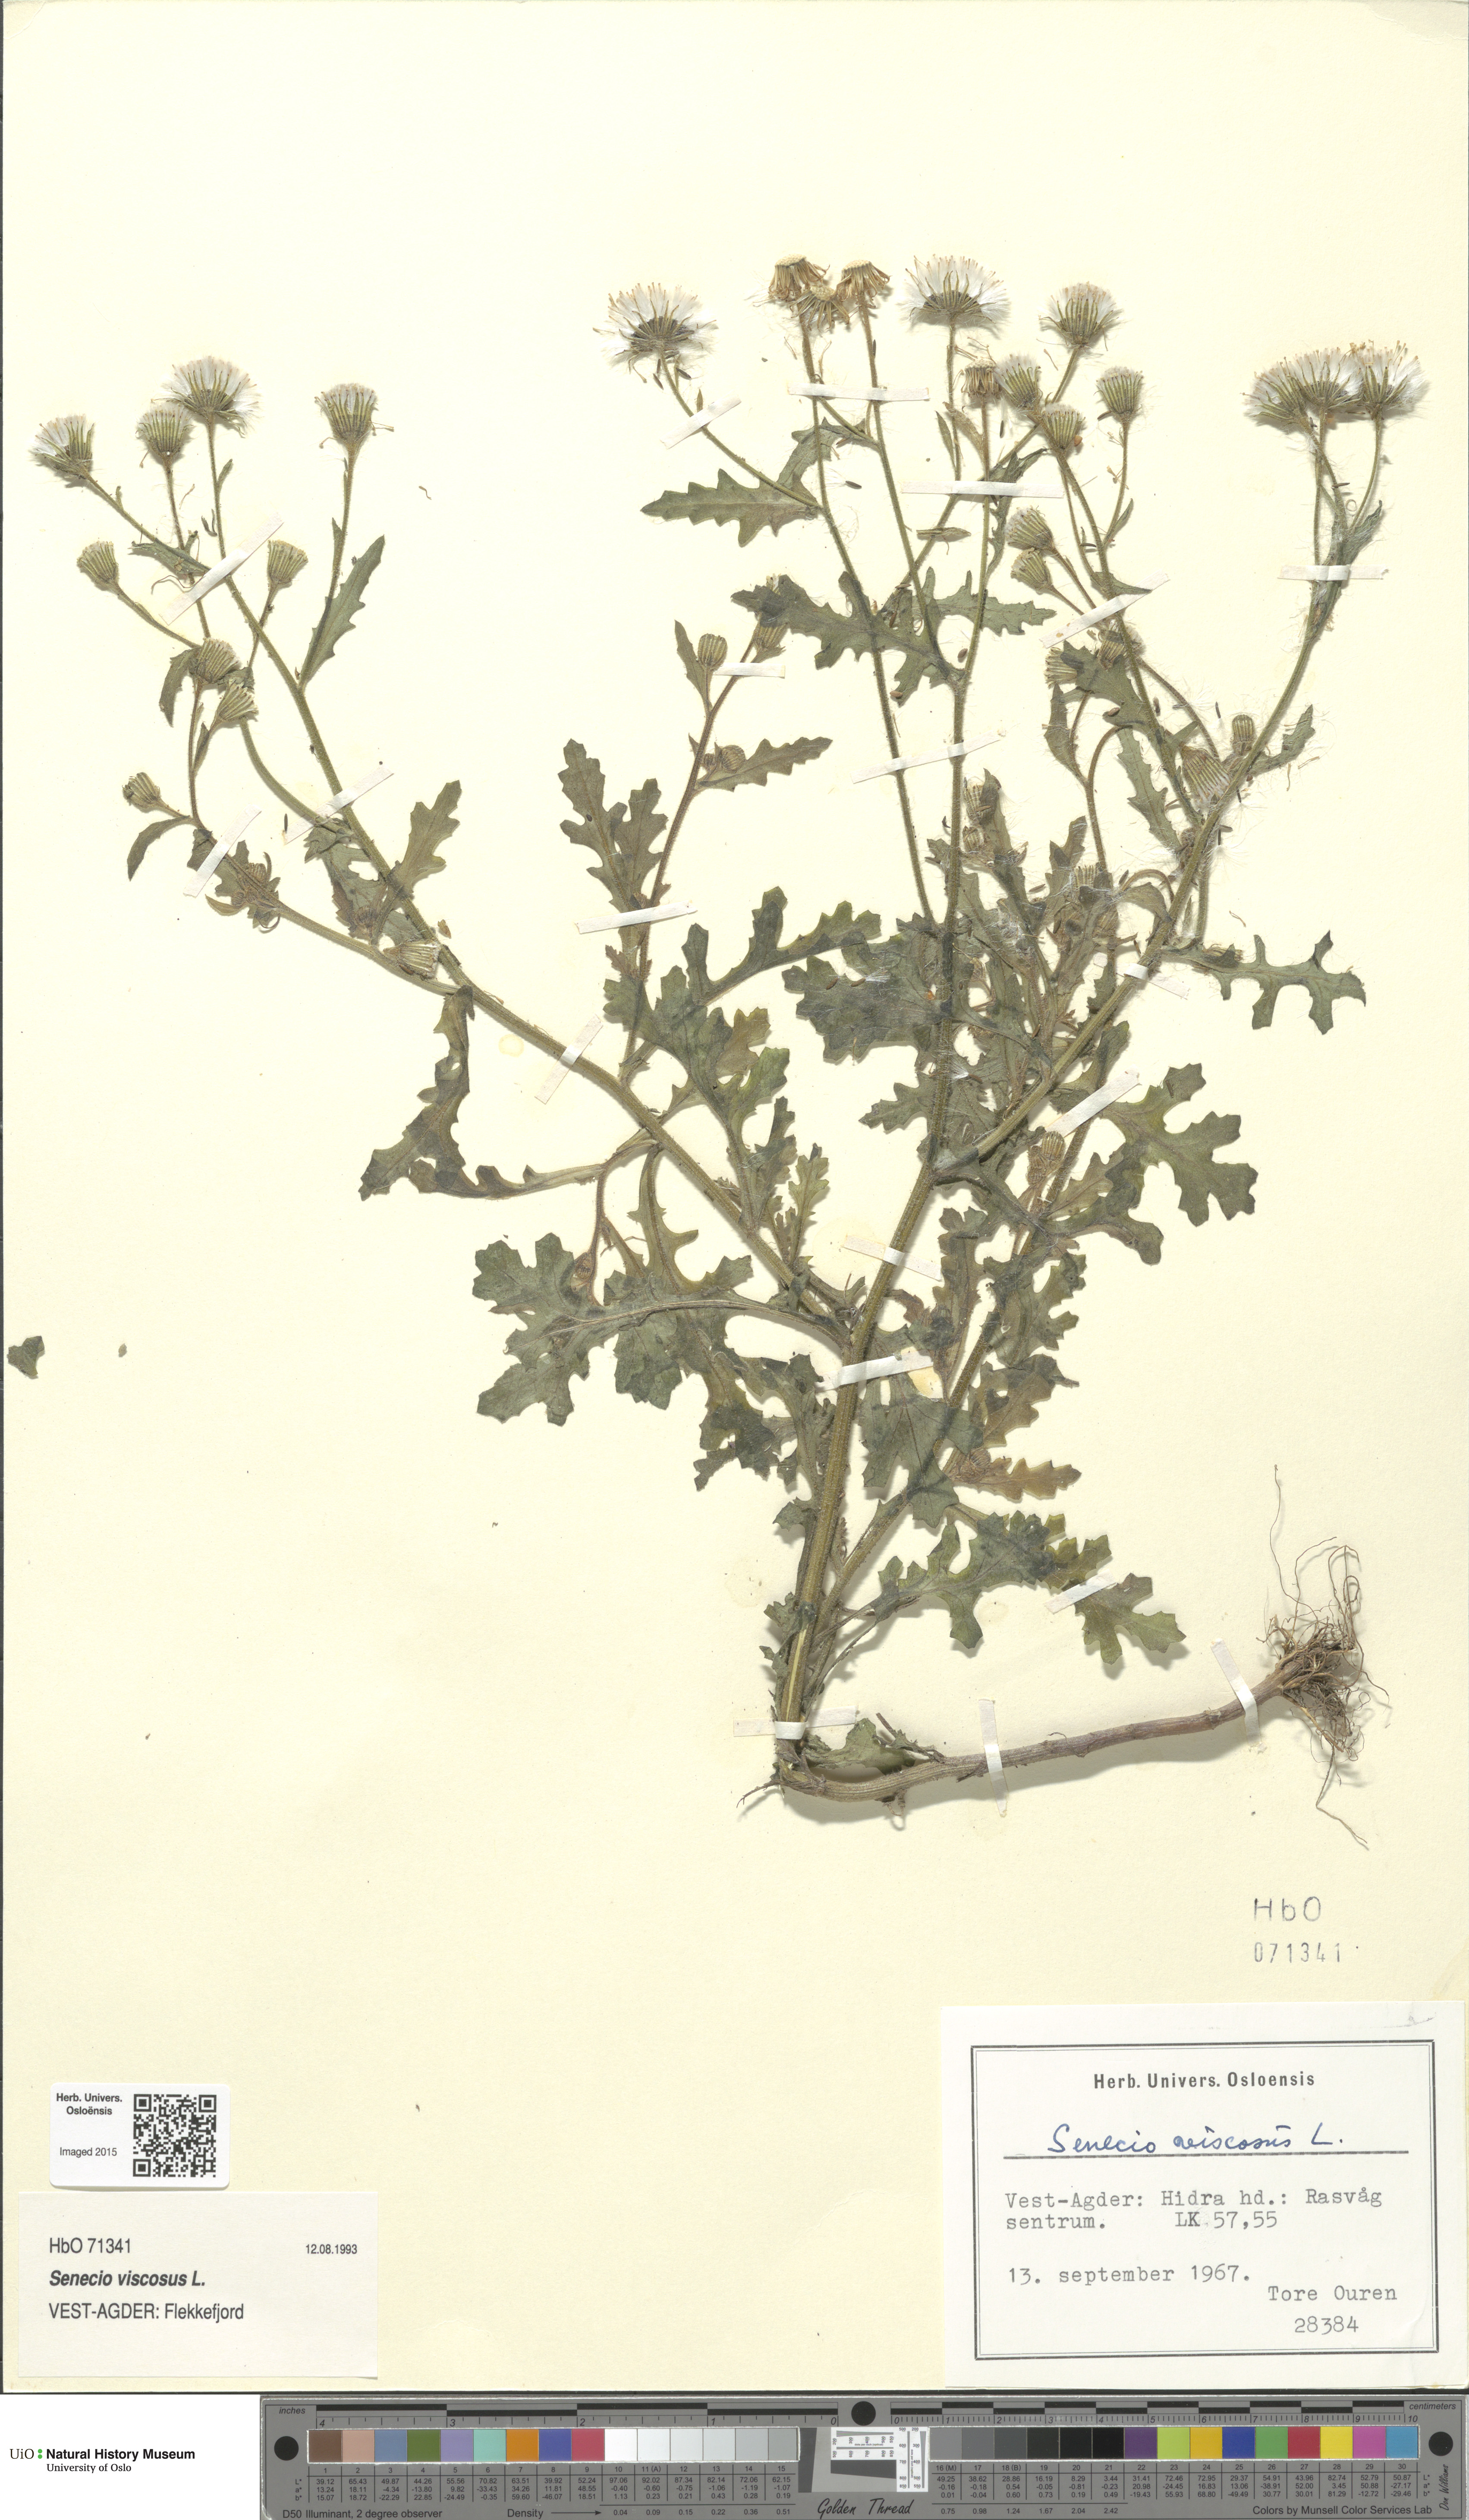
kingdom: Plantae
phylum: Tracheophyta
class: Magnoliopsida
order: Asterales
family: Asteraceae
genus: Senecio
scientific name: Senecio viscosus
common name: Sticky groundsel
